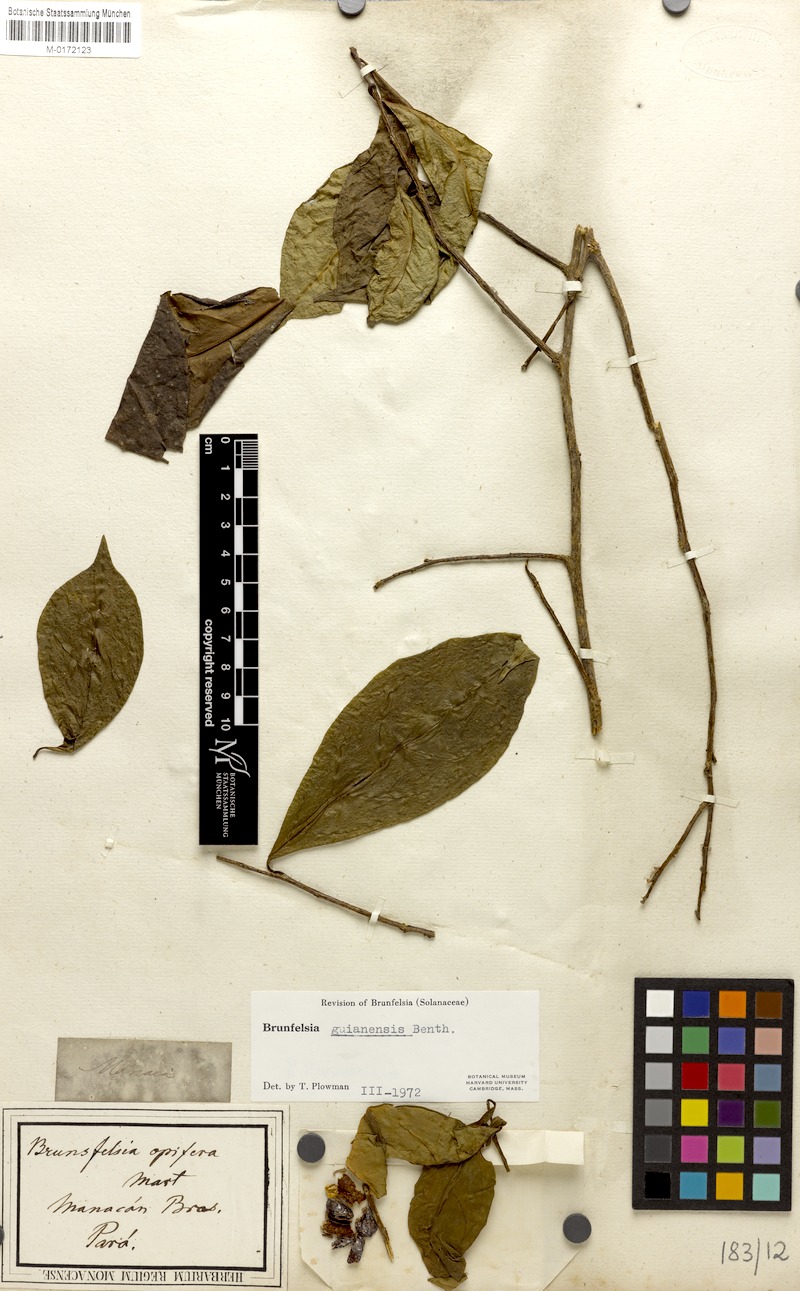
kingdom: Plantae
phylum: Tracheophyta
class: Magnoliopsida
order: Solanales
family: Solanaceae
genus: Brunfelsia
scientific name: Brunfelsia guianensis
